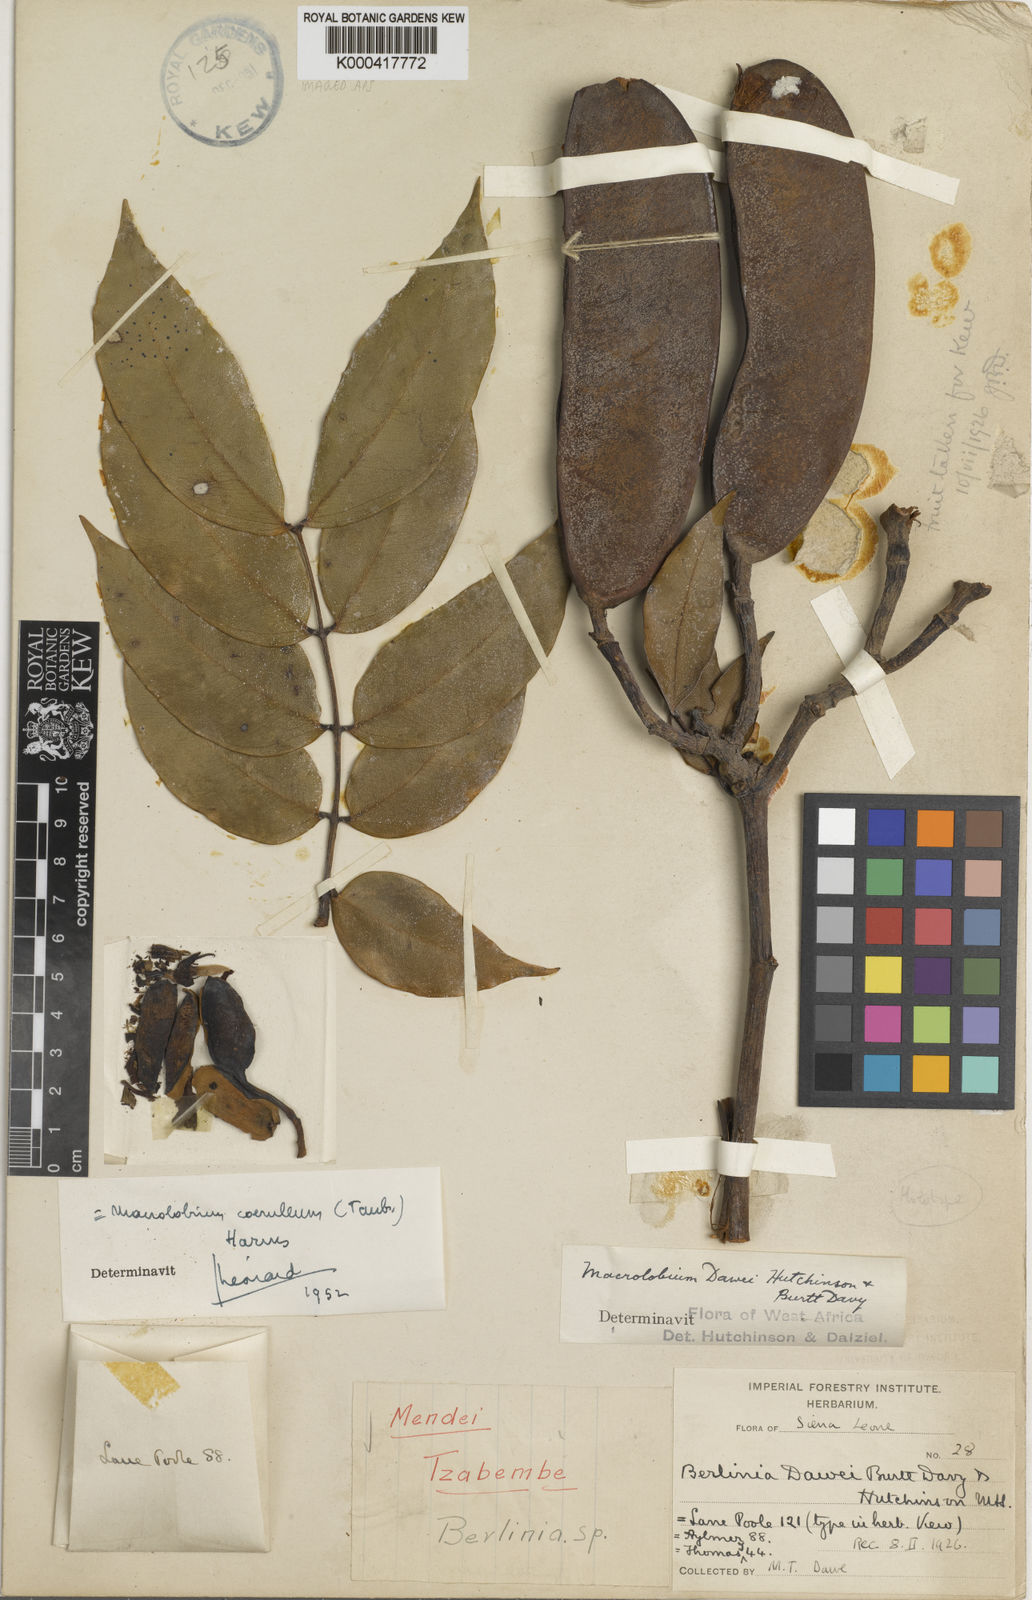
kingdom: Plantae
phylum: Tracheophyta
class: Magnoliopsida
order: Fabales
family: Fabaceae
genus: Paramacrolobium
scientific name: Paramacrolobium
